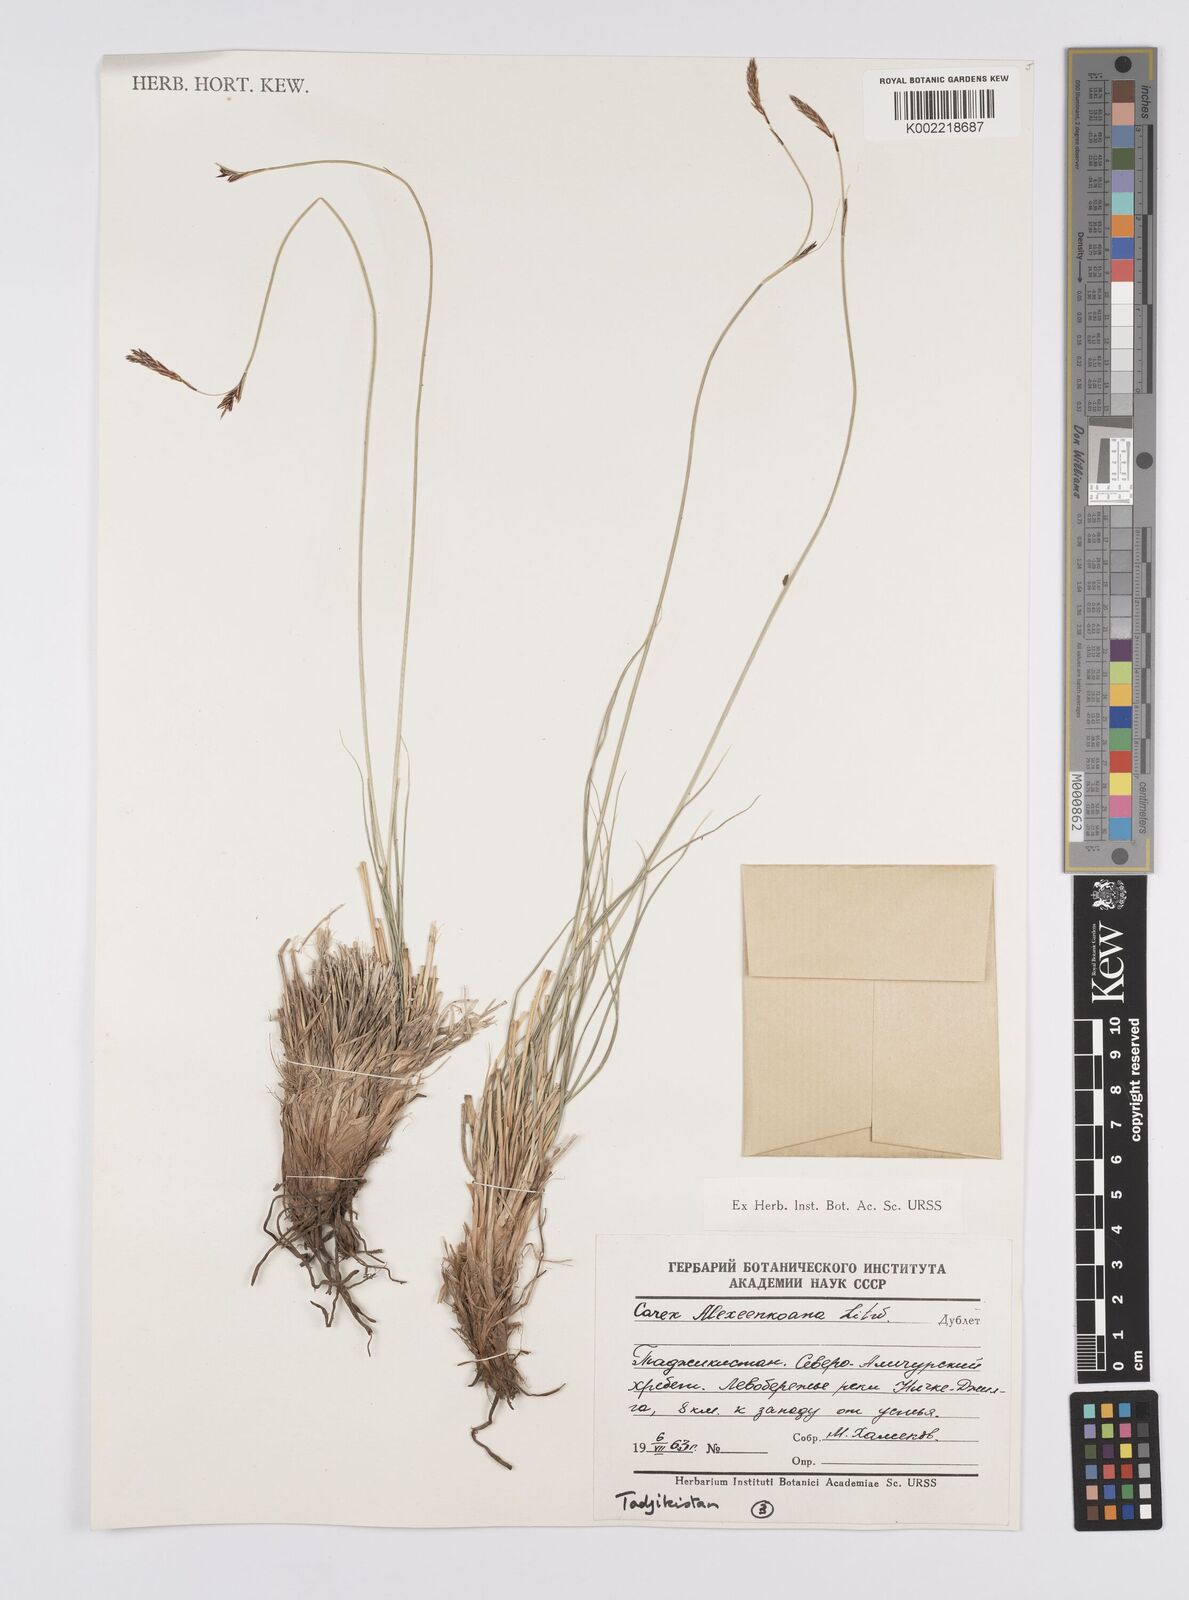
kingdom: Plantae
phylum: Tracheophyta
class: Liliopsida
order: Poales
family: Cyperaceae
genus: Carex
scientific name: Carex haematostoma
